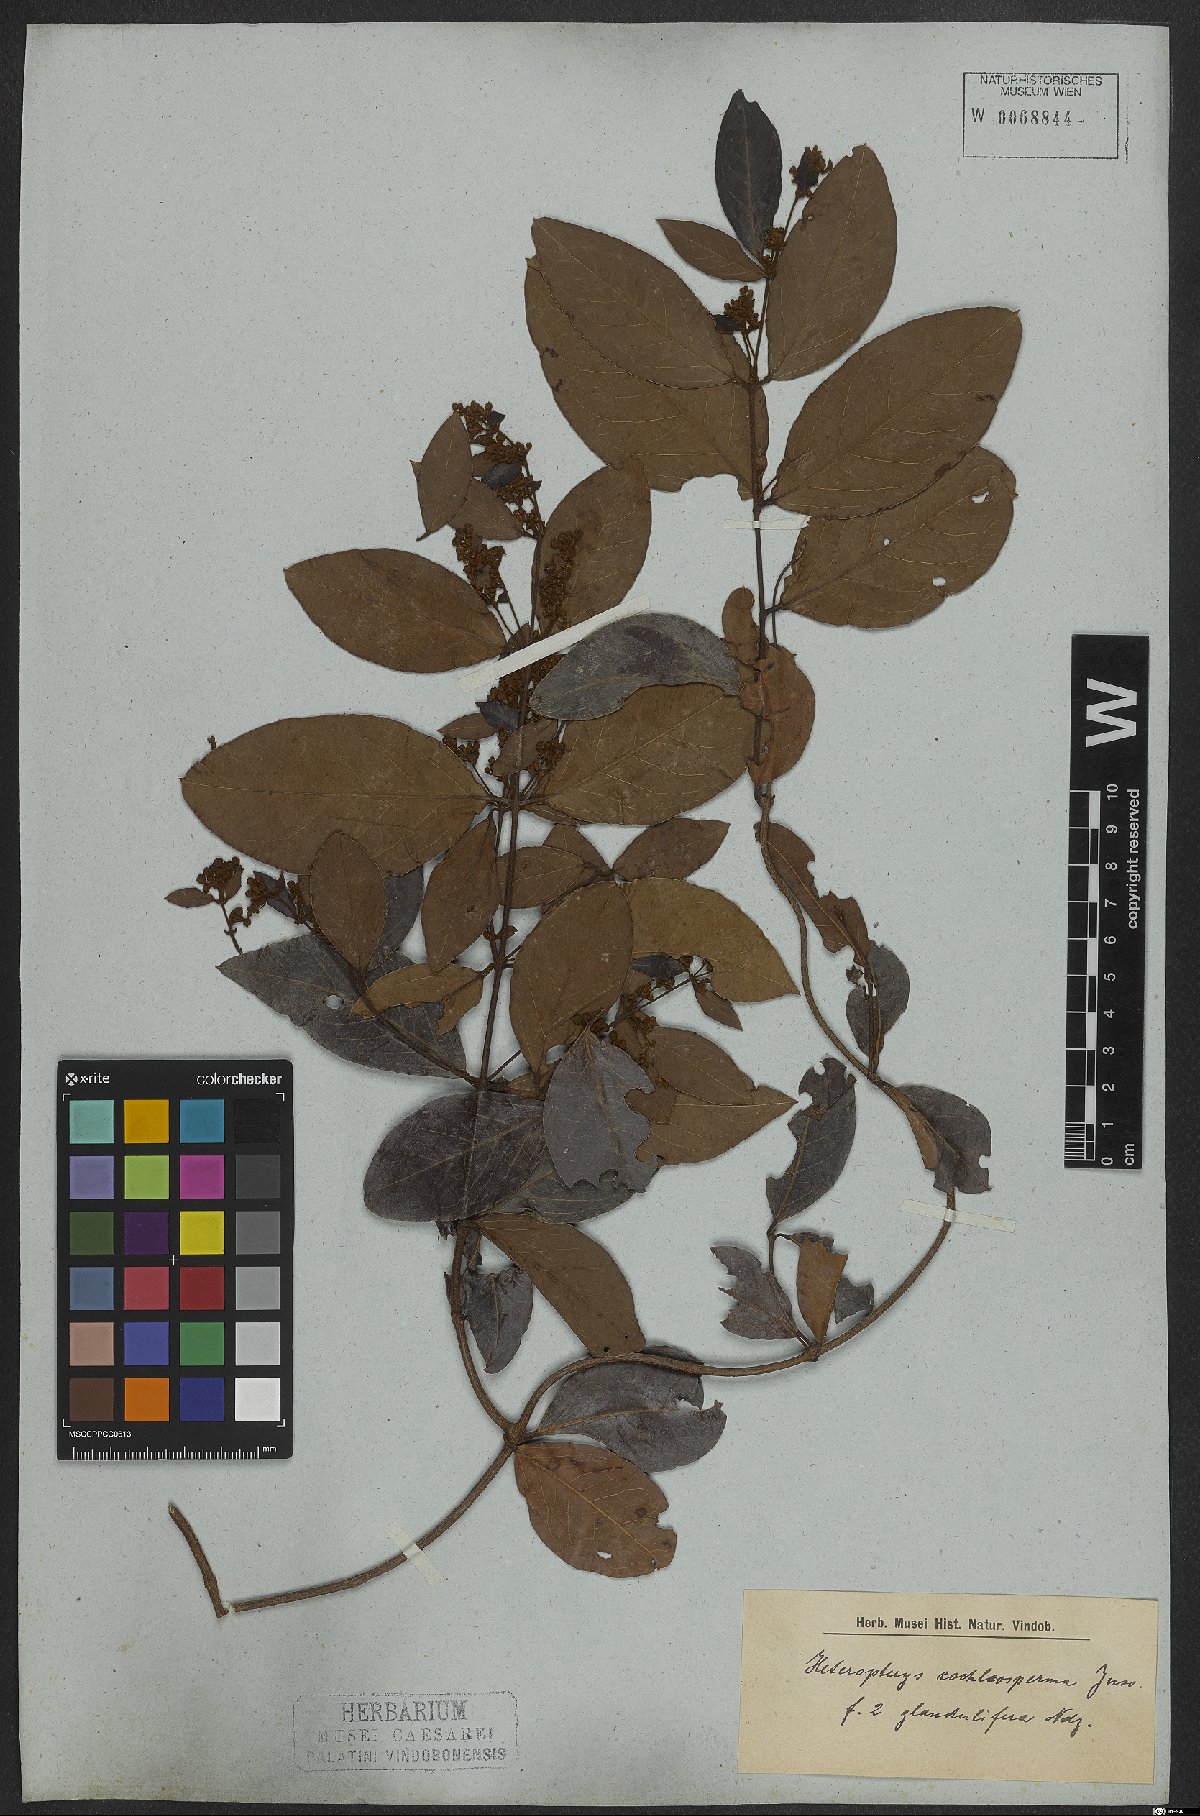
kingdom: Plantae
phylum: Tracheophyta
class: Magnoliopsida
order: Malpighiales
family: Malpighiaceae
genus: Heteropterys
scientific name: Heteropterys cochleosperma
